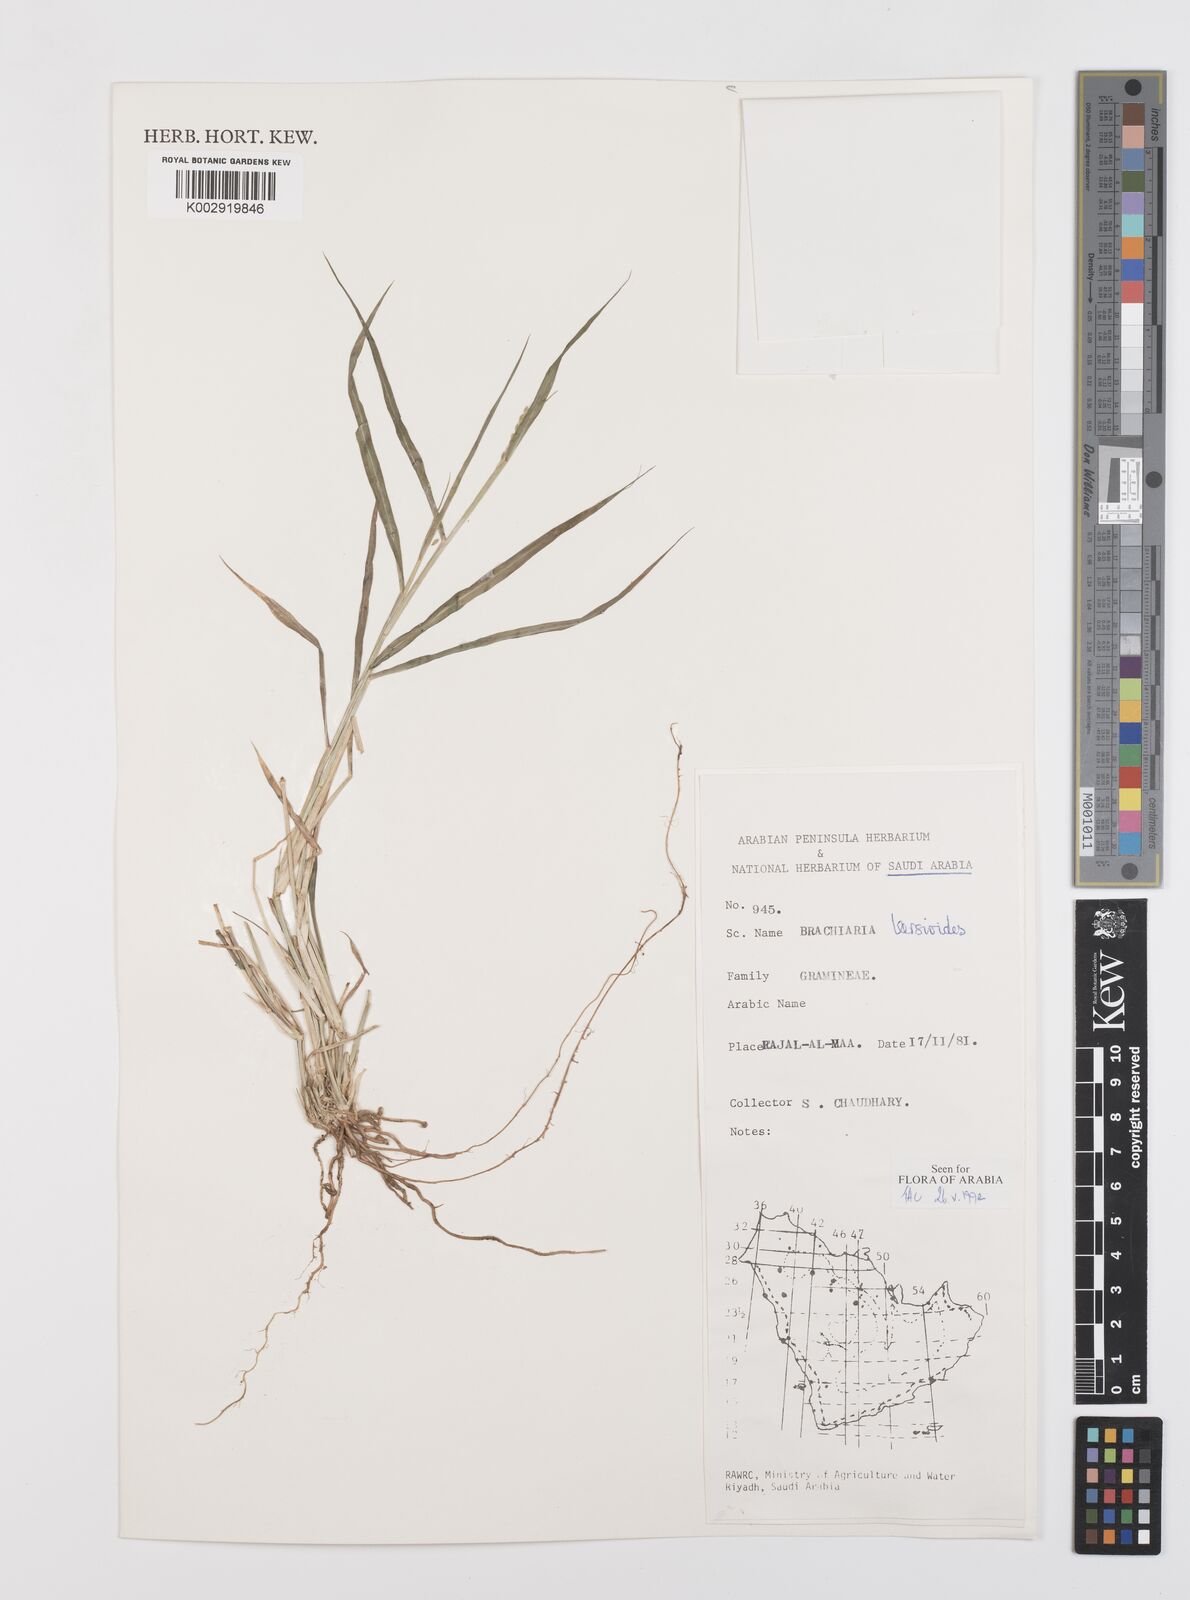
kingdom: Plantae
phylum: Tracheophyta
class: Liliopsida
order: Poales
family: Poaceae
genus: Urochloa
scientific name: Urochloa leersioides
